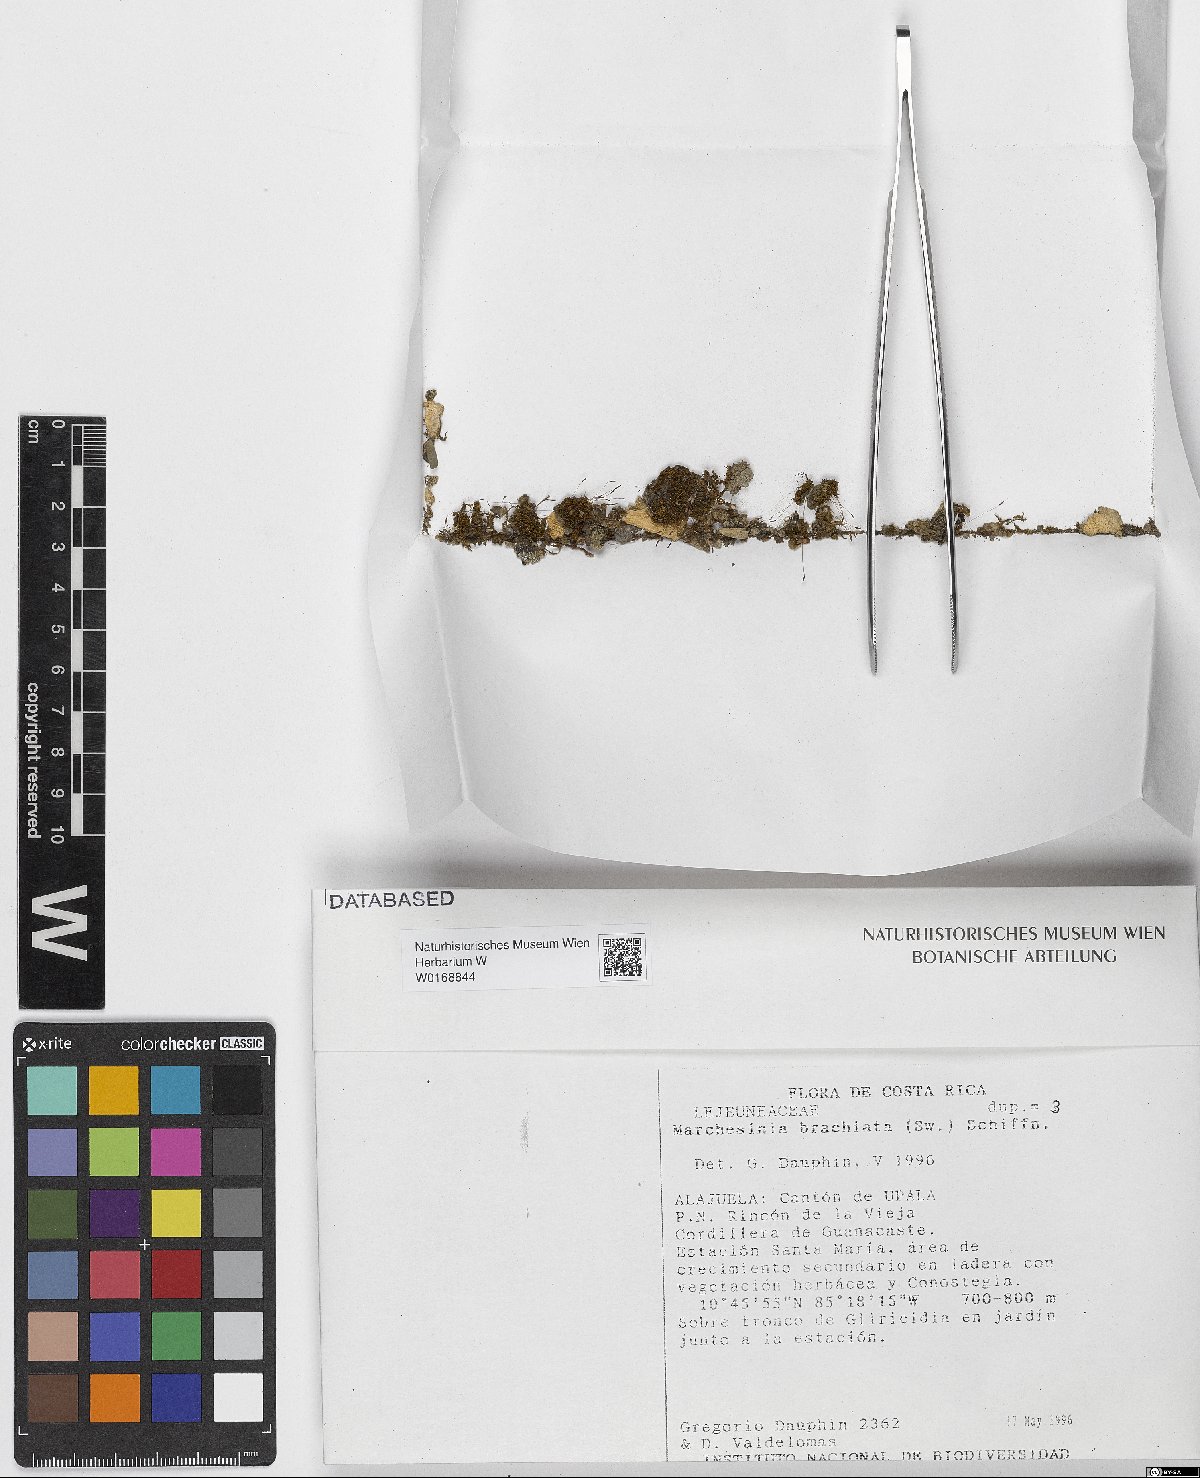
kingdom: Plantae
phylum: Marchantiophyta
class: Jungermanniopsida
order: Porellales
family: Lejeuneaceae
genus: Marchesinia
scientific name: Marchesinia brachiata
